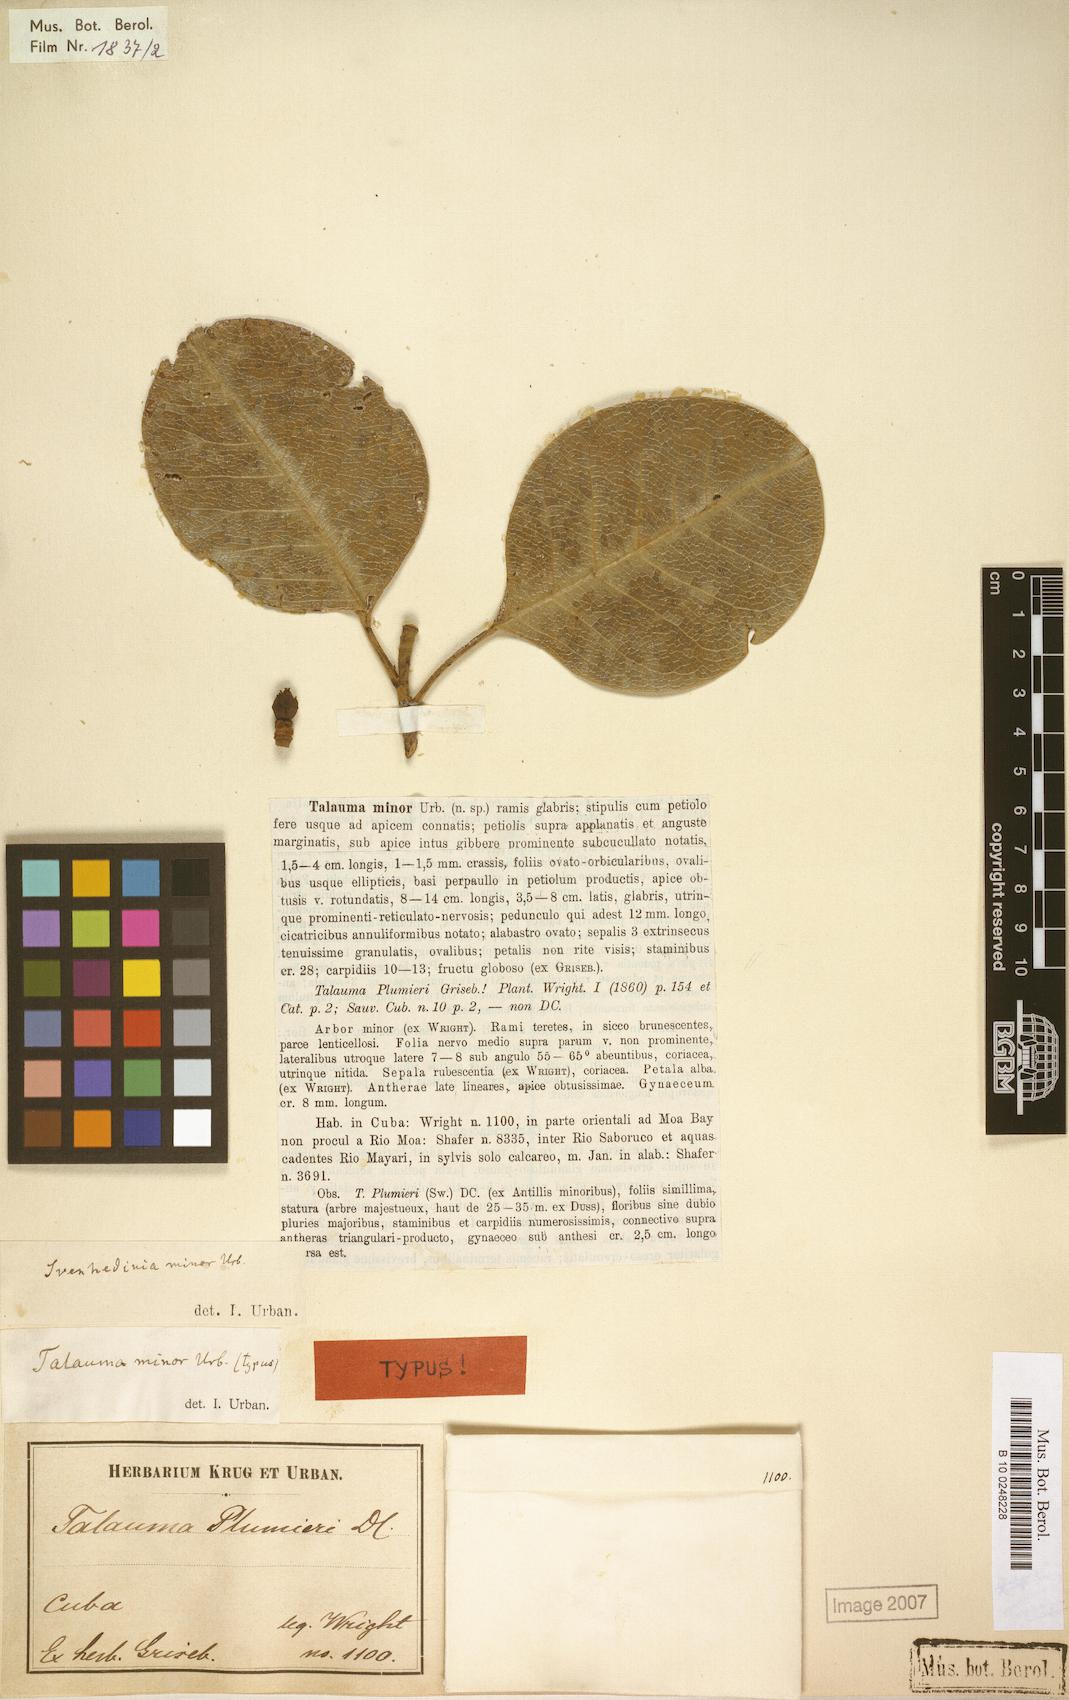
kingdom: Plantae
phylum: Tracheophyta
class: Magnoliopsida
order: Magnoliales
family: Magnoliaceae
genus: Magnolia
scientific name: Magnolia minor
